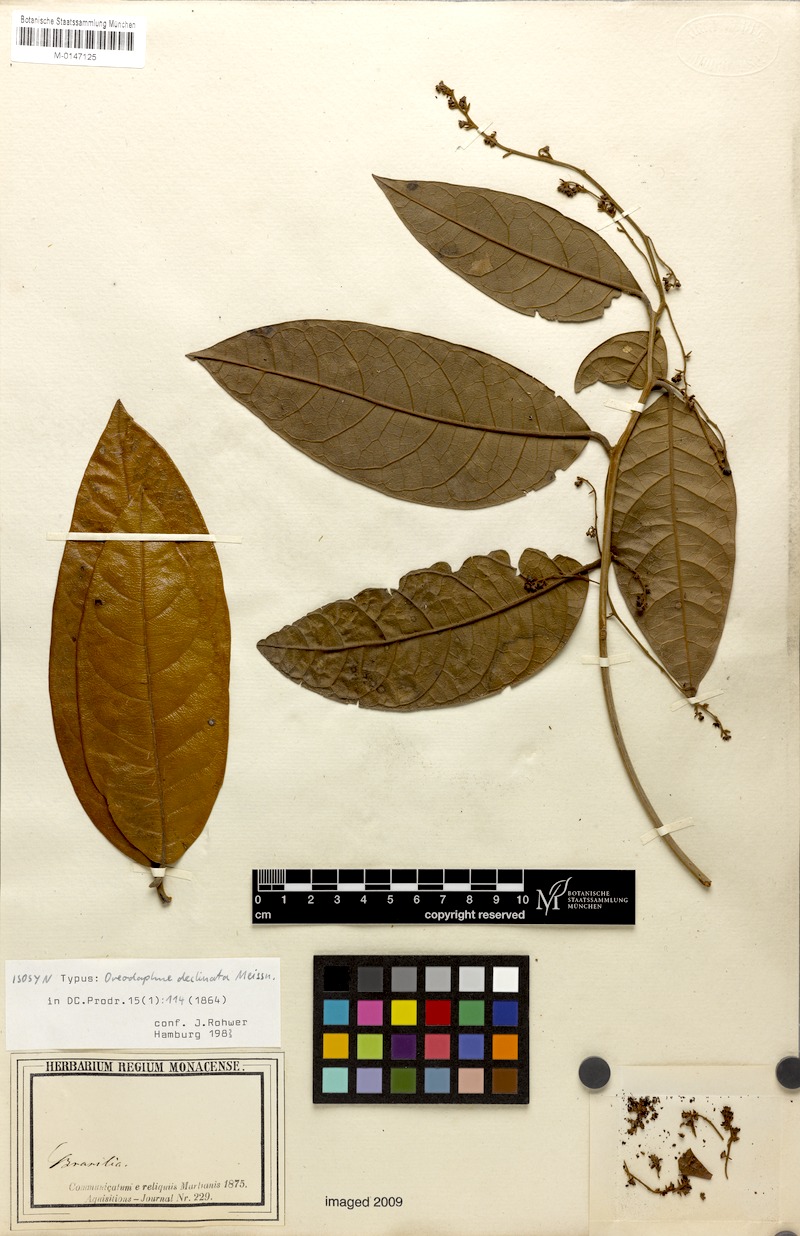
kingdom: Plantae
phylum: Tracheophyta
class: Magnoliopsida
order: Laurales
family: Lauraceae
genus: Ocotea
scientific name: Ocotea deflexa
